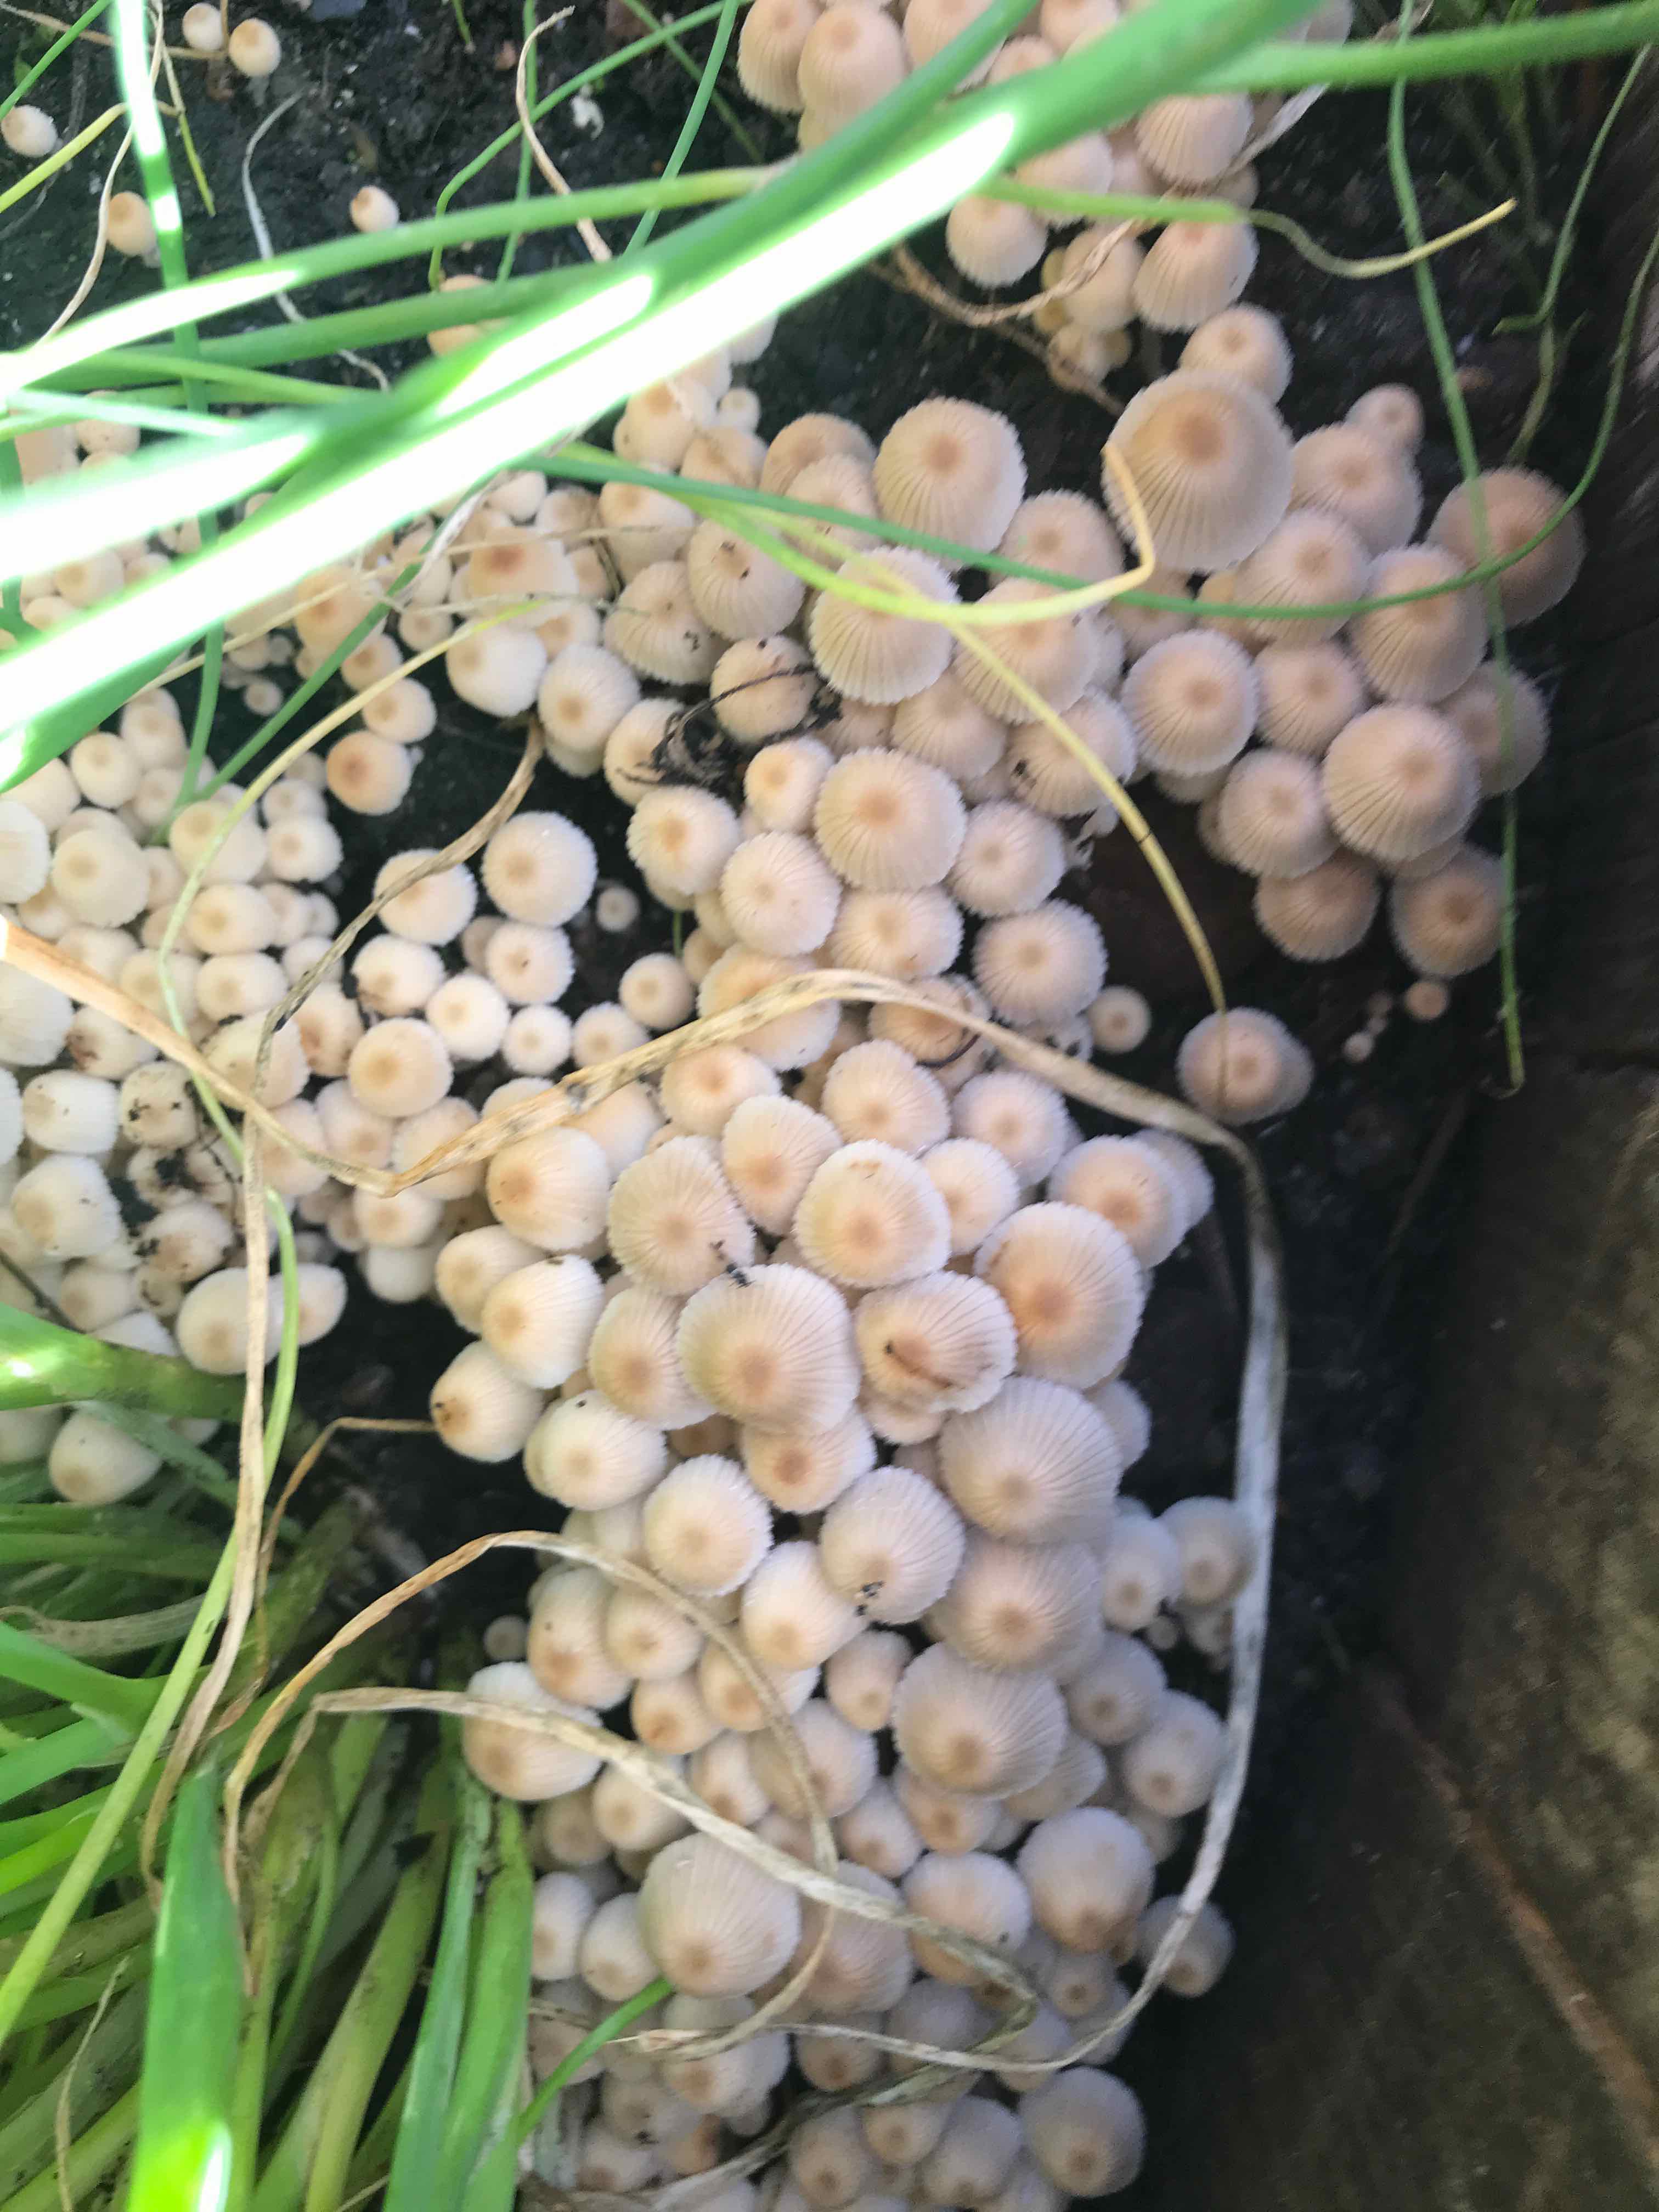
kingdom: Fungi
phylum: Basidiomycota
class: Agaricomycetes
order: Agaricales
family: Psathyrellaceae
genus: Coprinellus
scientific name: Coprinellus disseminatus
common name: bredsået blækhat
